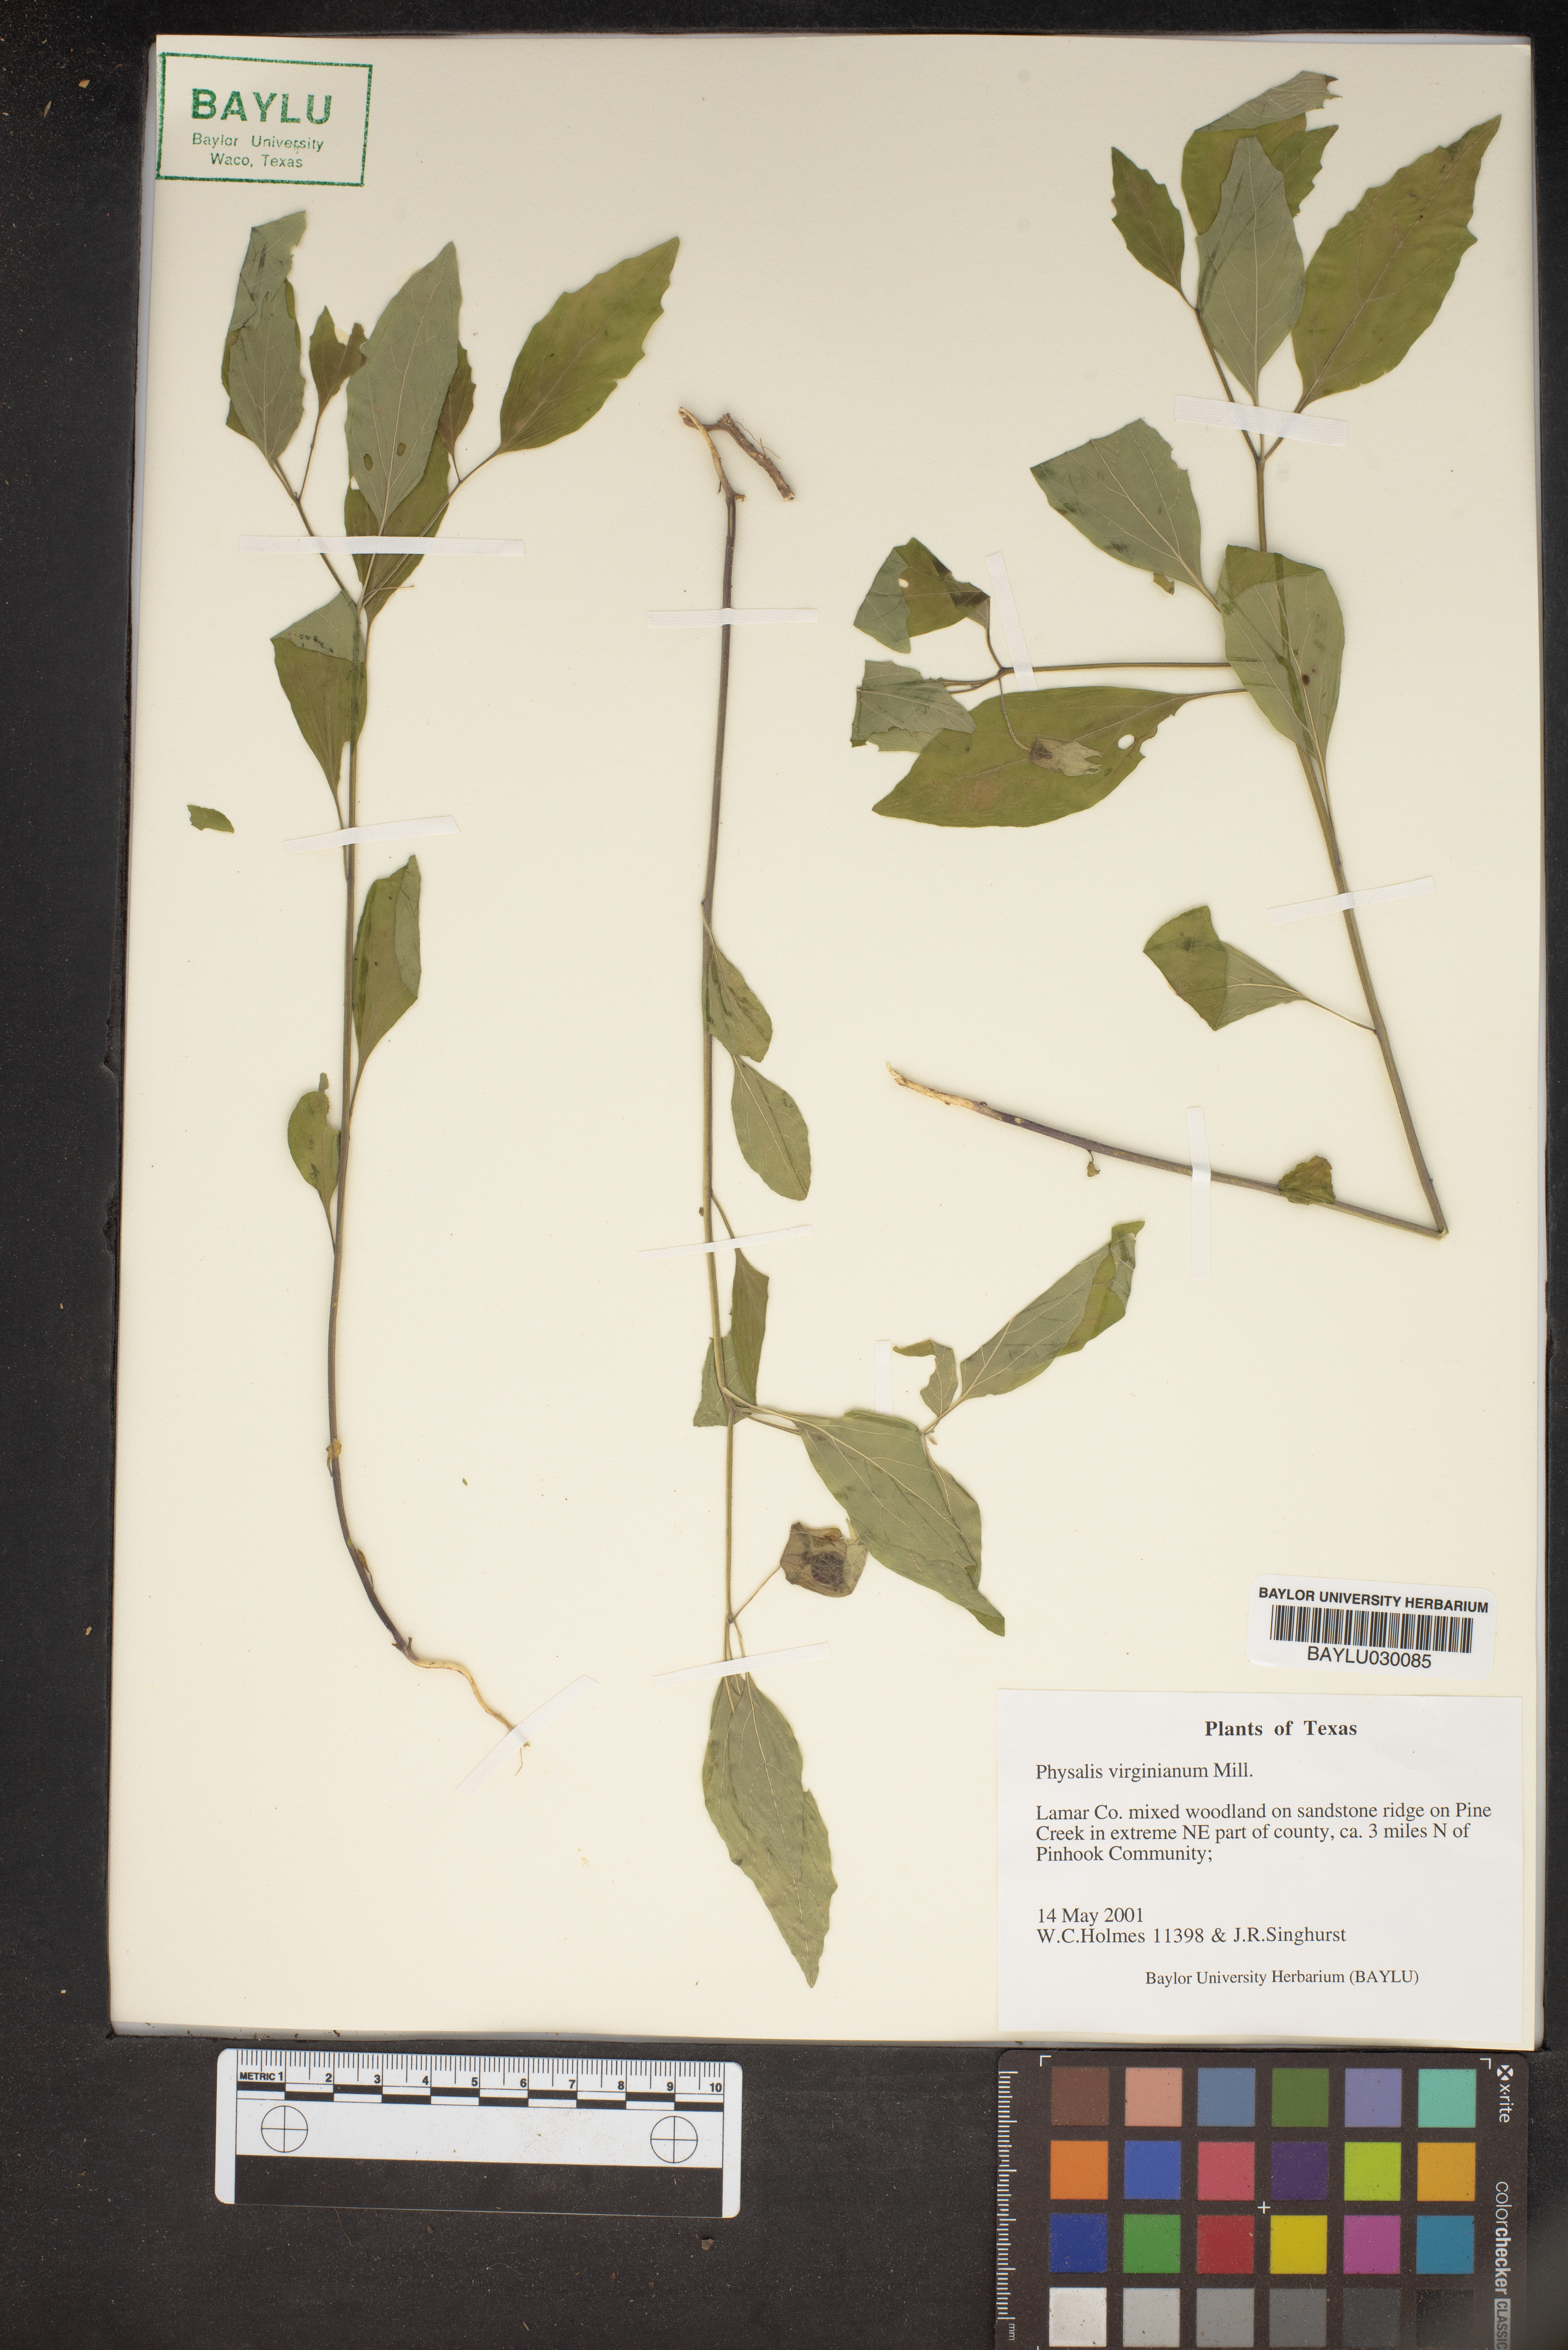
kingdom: Plantae
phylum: Tracheophyta
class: Magnoliopsida
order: Solanales
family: Solanaceae
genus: Physalis
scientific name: Physalis virginiana
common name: Virginia ground-cherry
